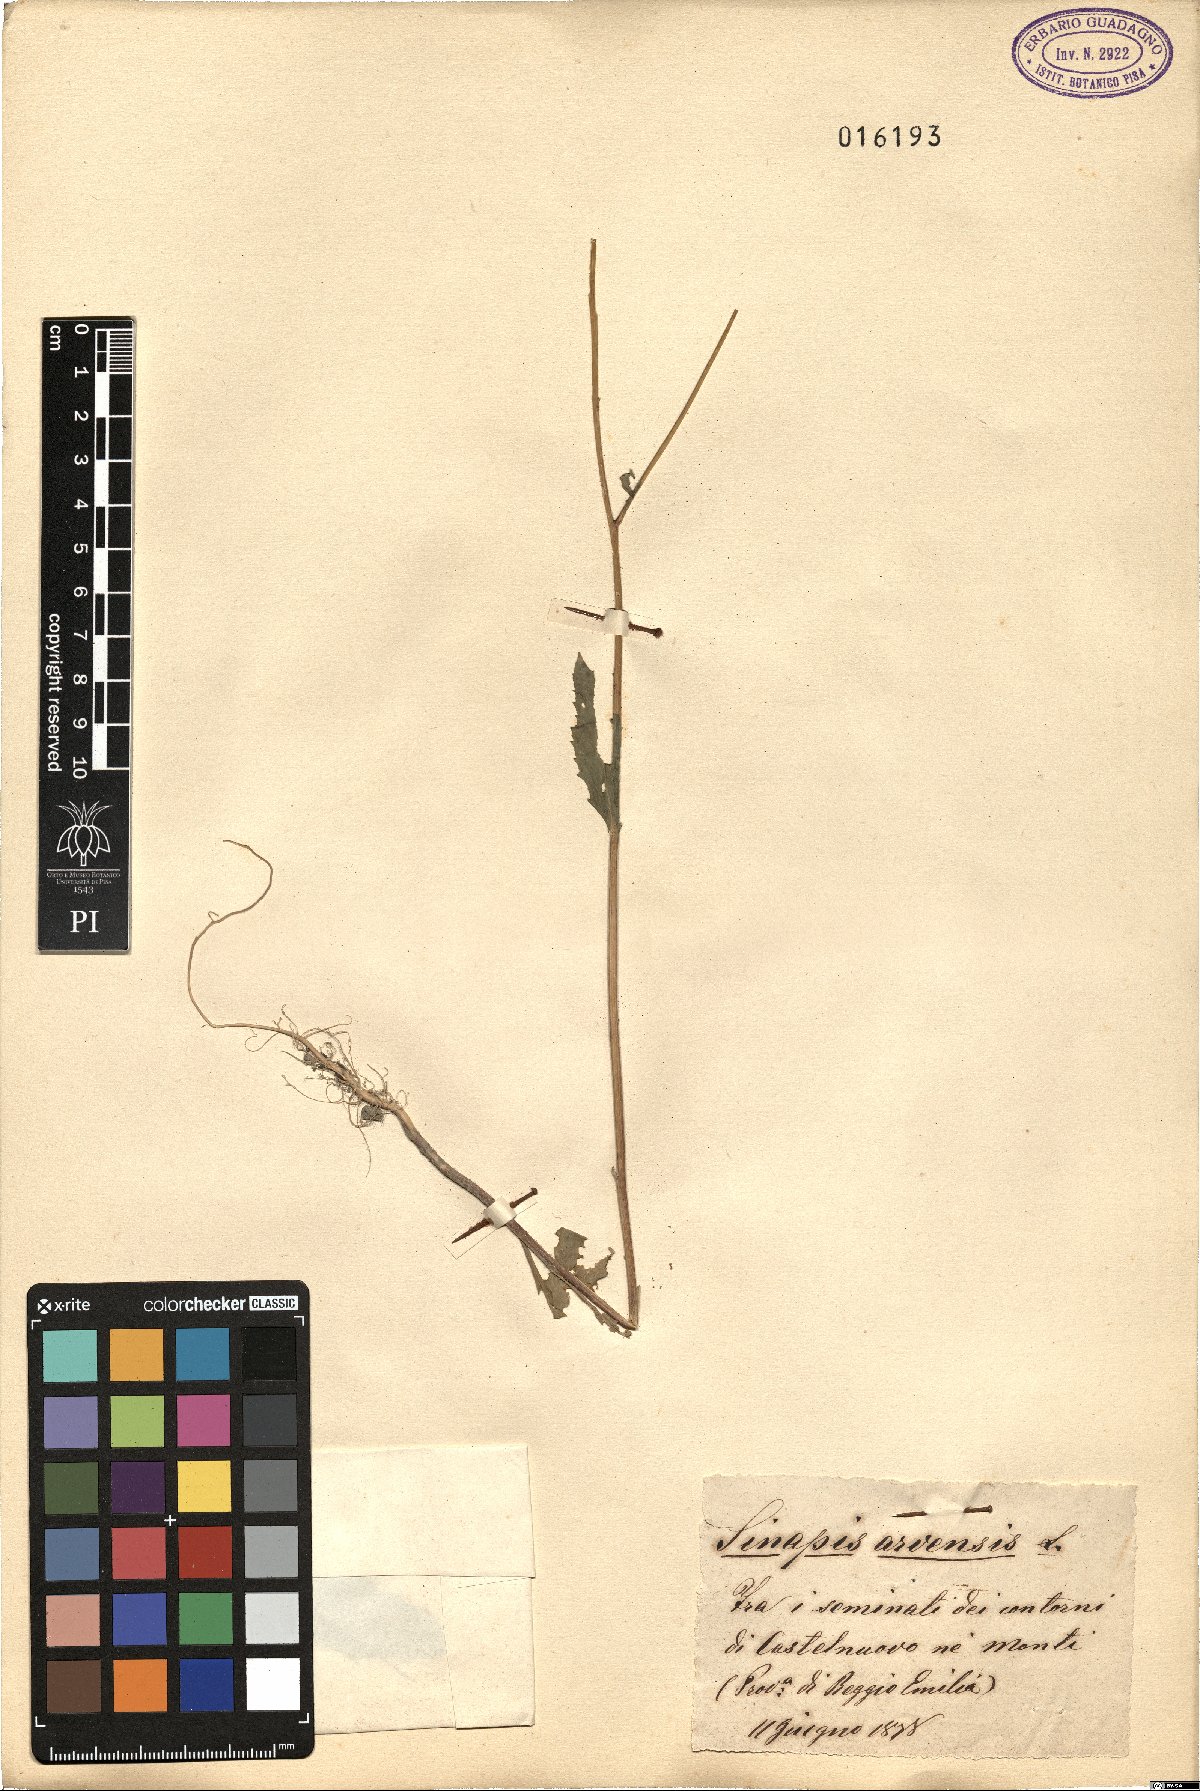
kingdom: Plantae
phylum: Tracheophyta
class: Magnoliopsida
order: Brassicales
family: Brassicaceae
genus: Sinapis
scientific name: Sinapis arvensis
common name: Charlock
